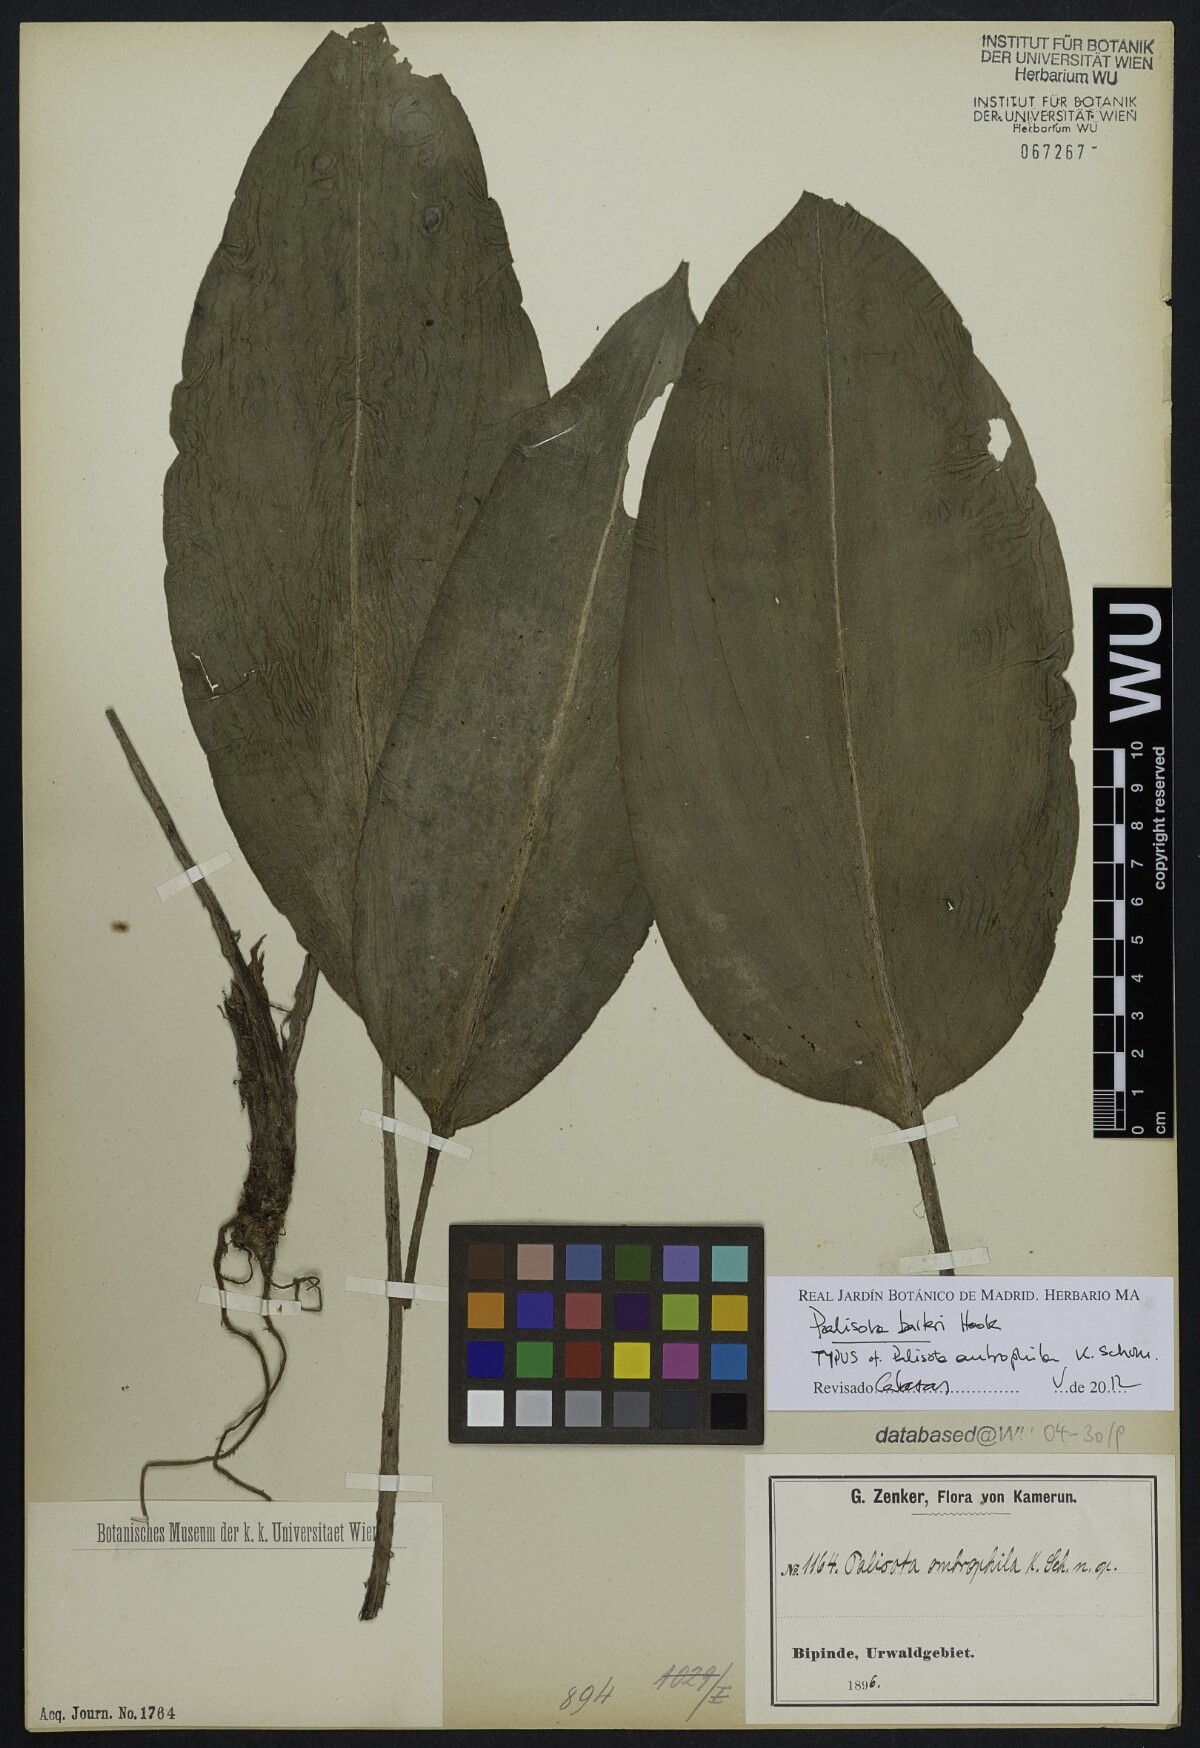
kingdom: Plantae
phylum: Tracheophyta
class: Liliopsida
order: Commelinales
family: Commelinaceae
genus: Palisota
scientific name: Palisota barteri
